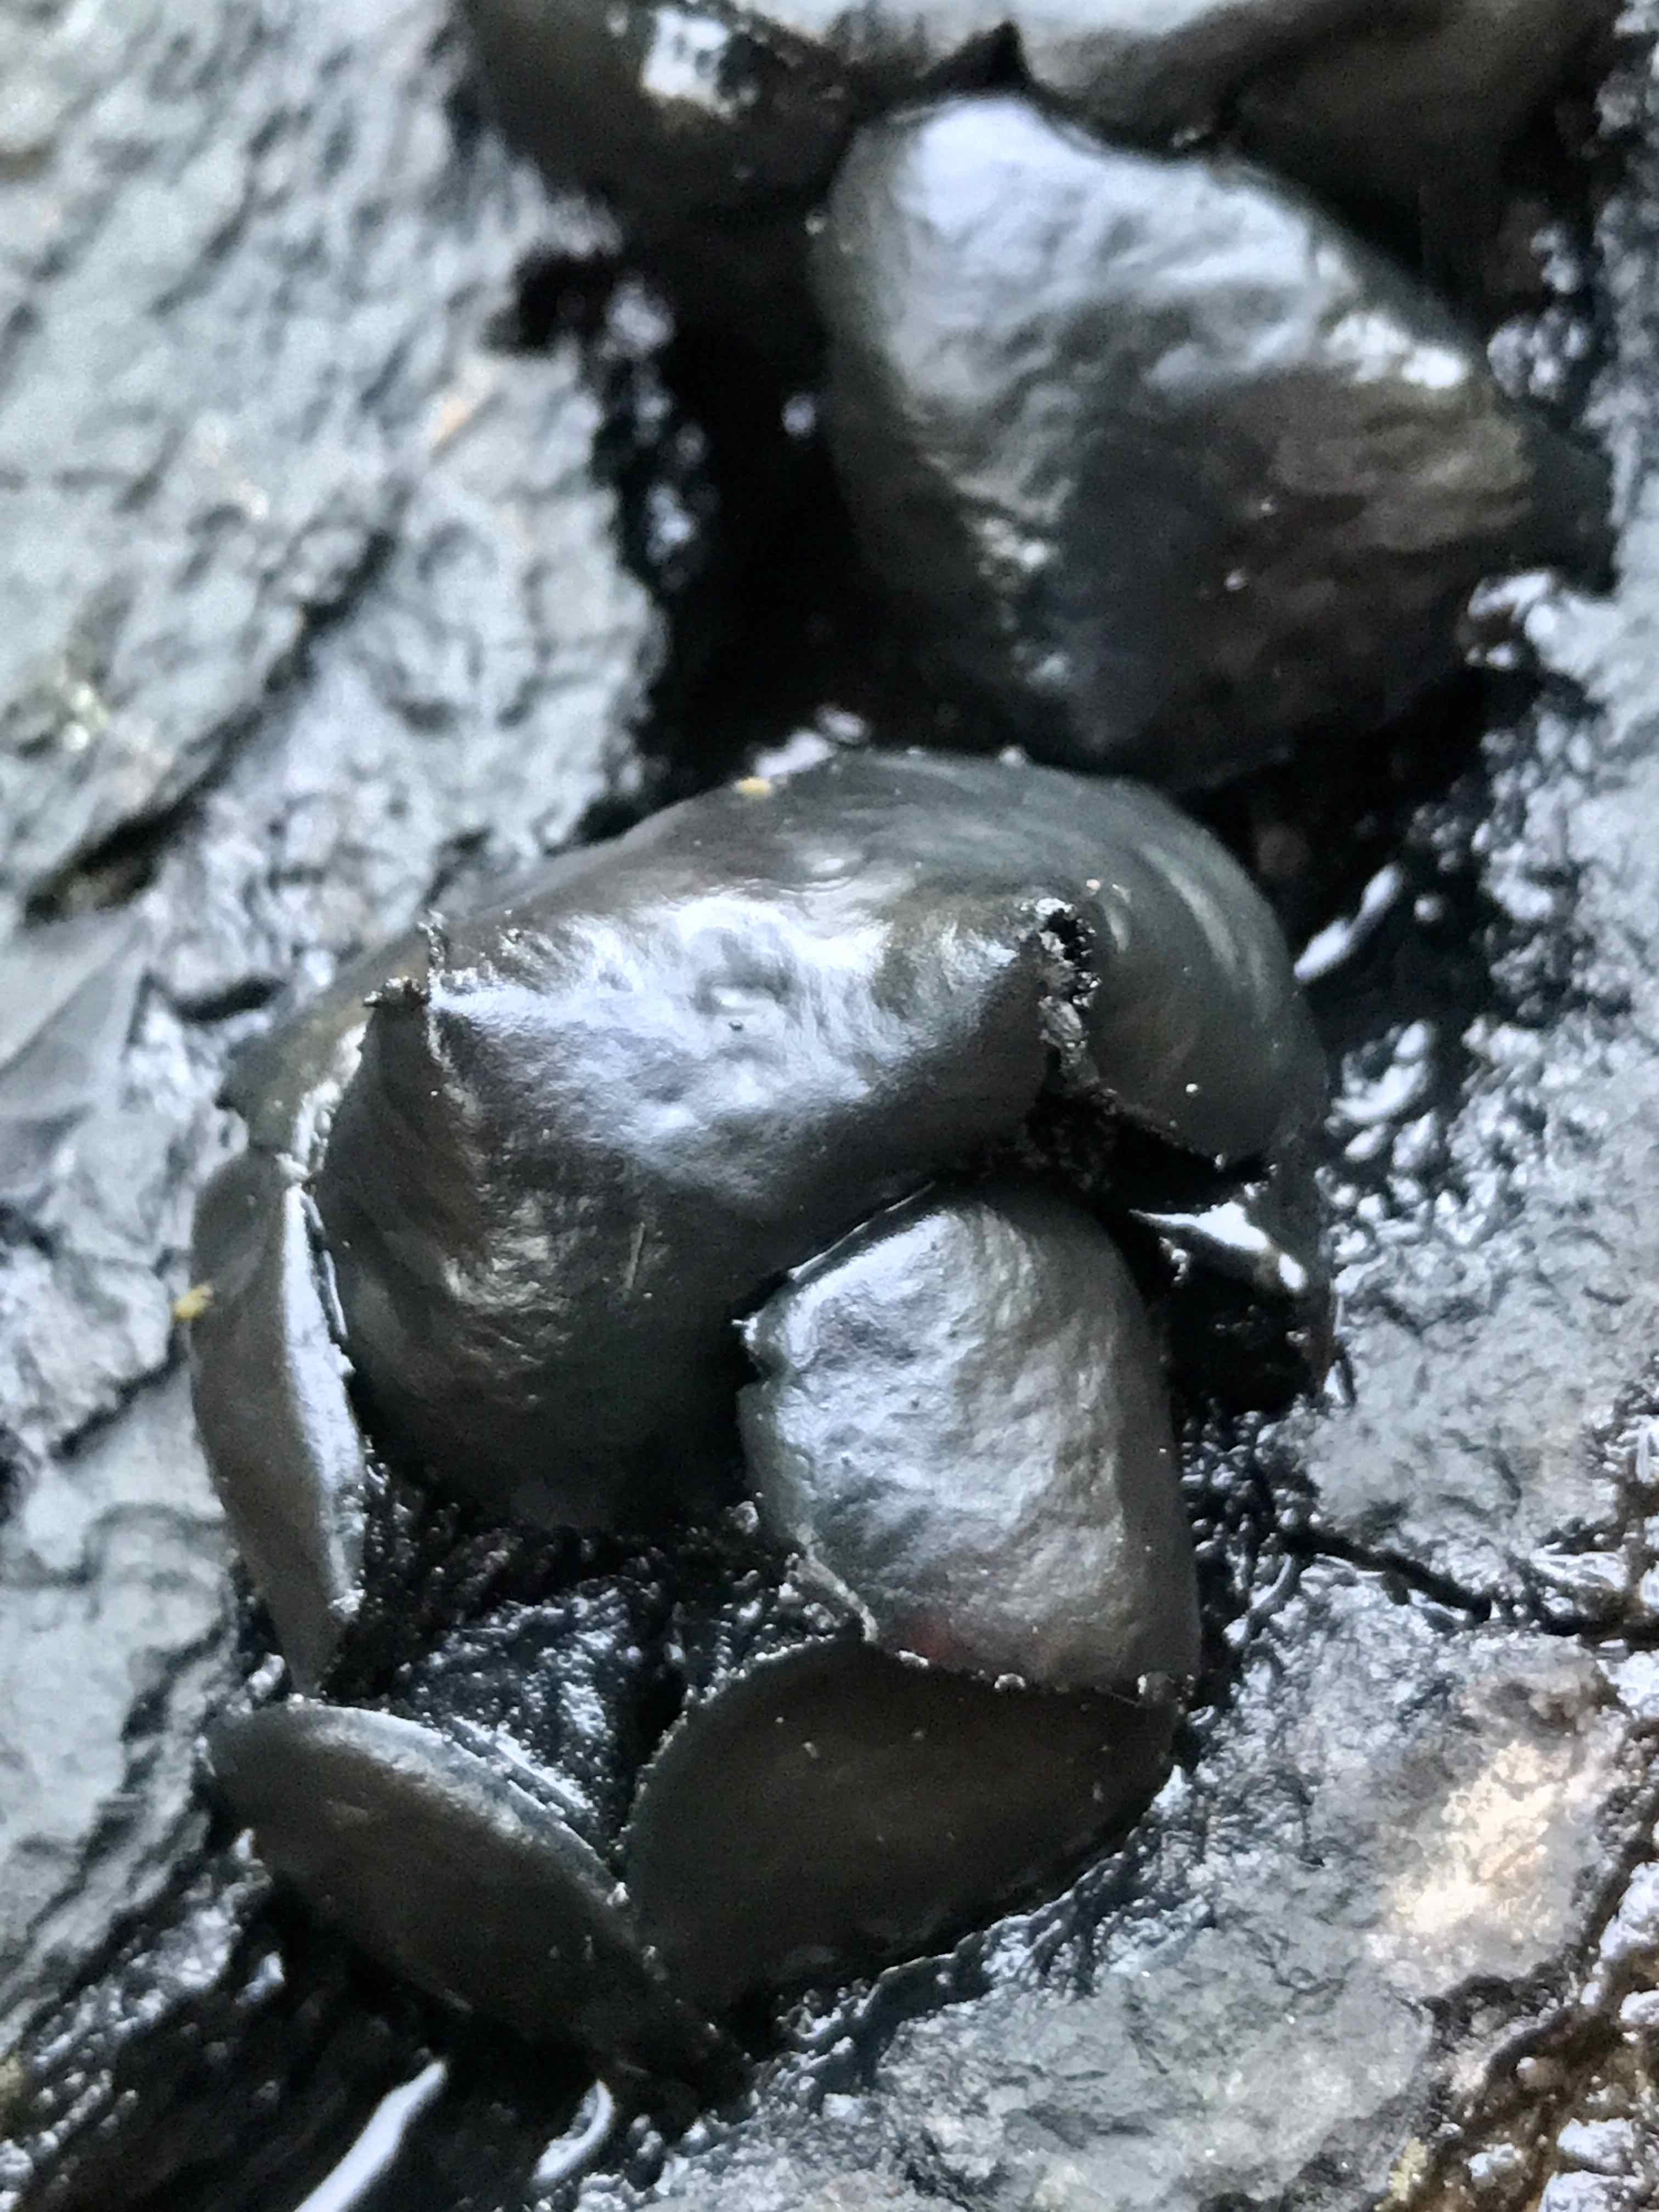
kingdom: Fungi
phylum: Ascomycota
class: Leotiomycetes
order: Phacidiales
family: Phacidiaceae
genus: Bulgaria
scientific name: Bulgaria inquinans
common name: afsmittende topsvamp
